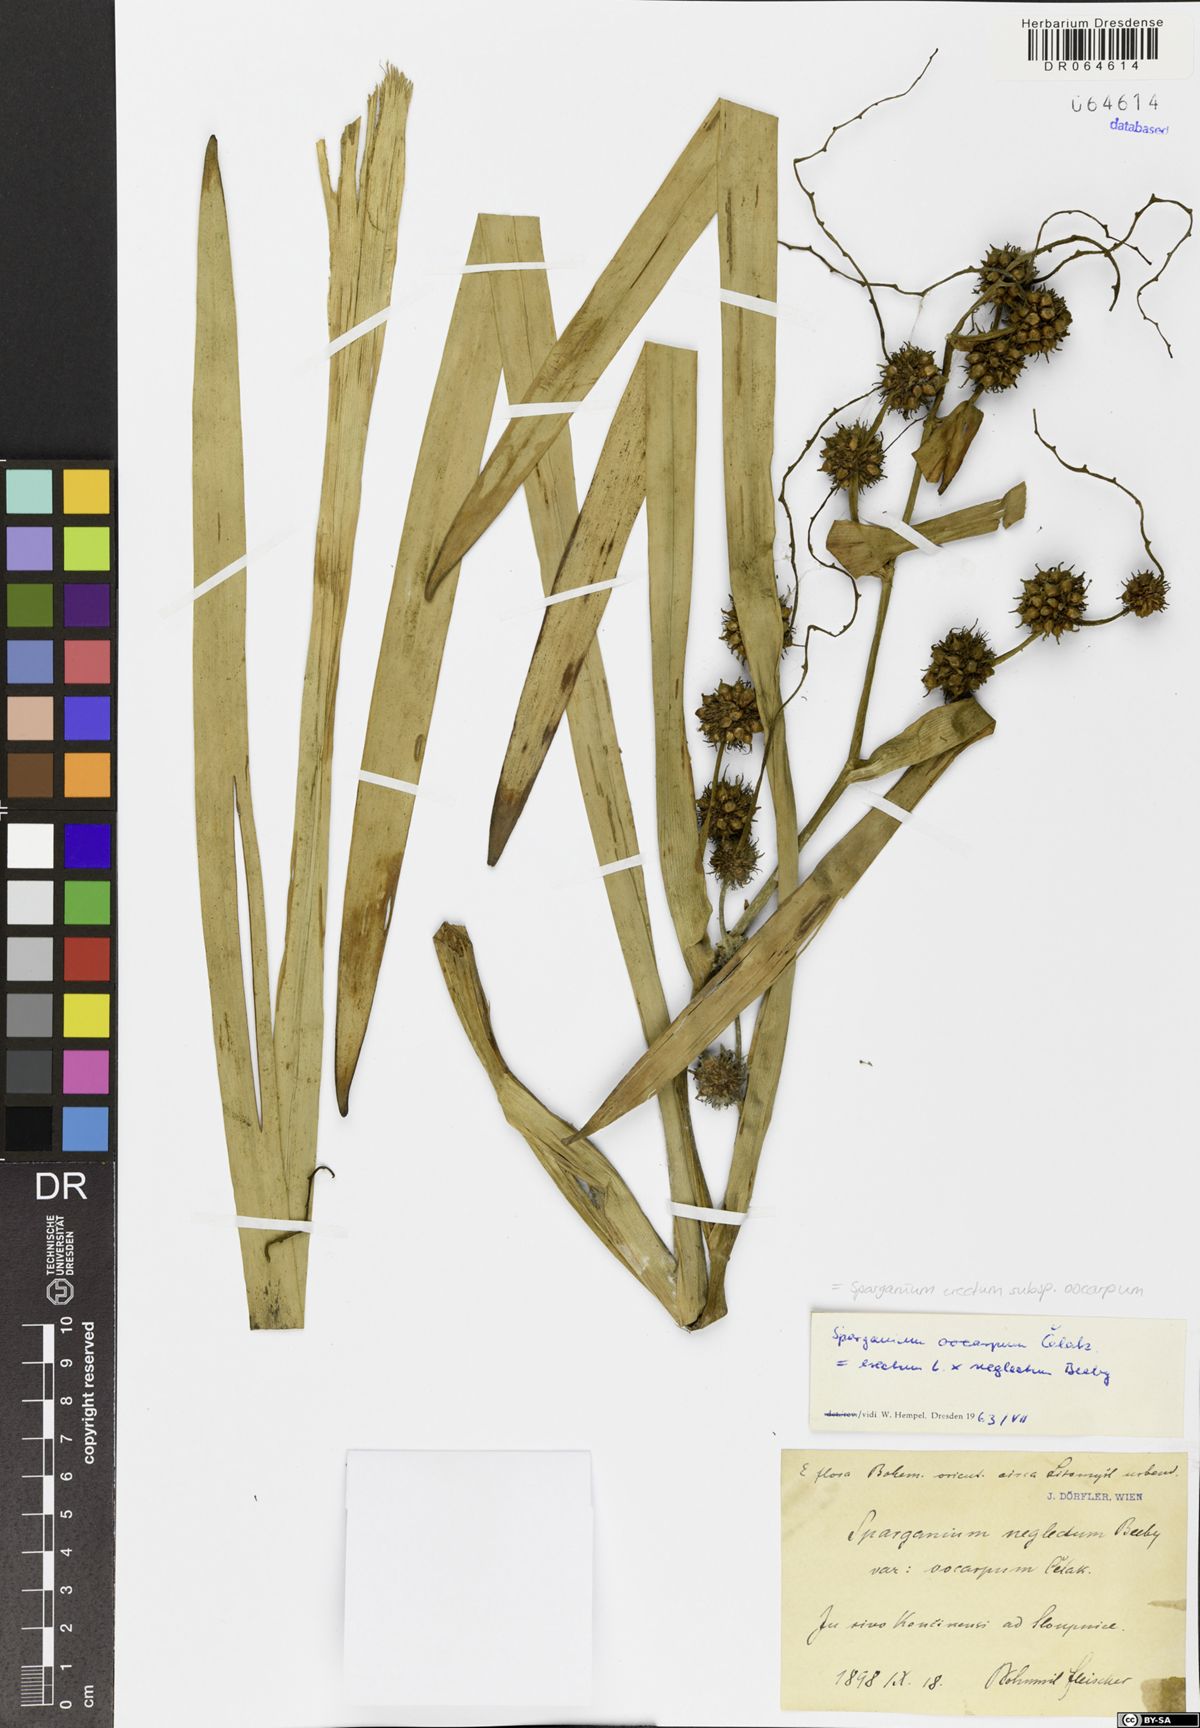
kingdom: Plantae
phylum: Tracheophyta
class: Liliopsida
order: Poales
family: Typhaceae
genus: Sparganium
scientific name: Sparganium erectum
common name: Branched bur-reed
